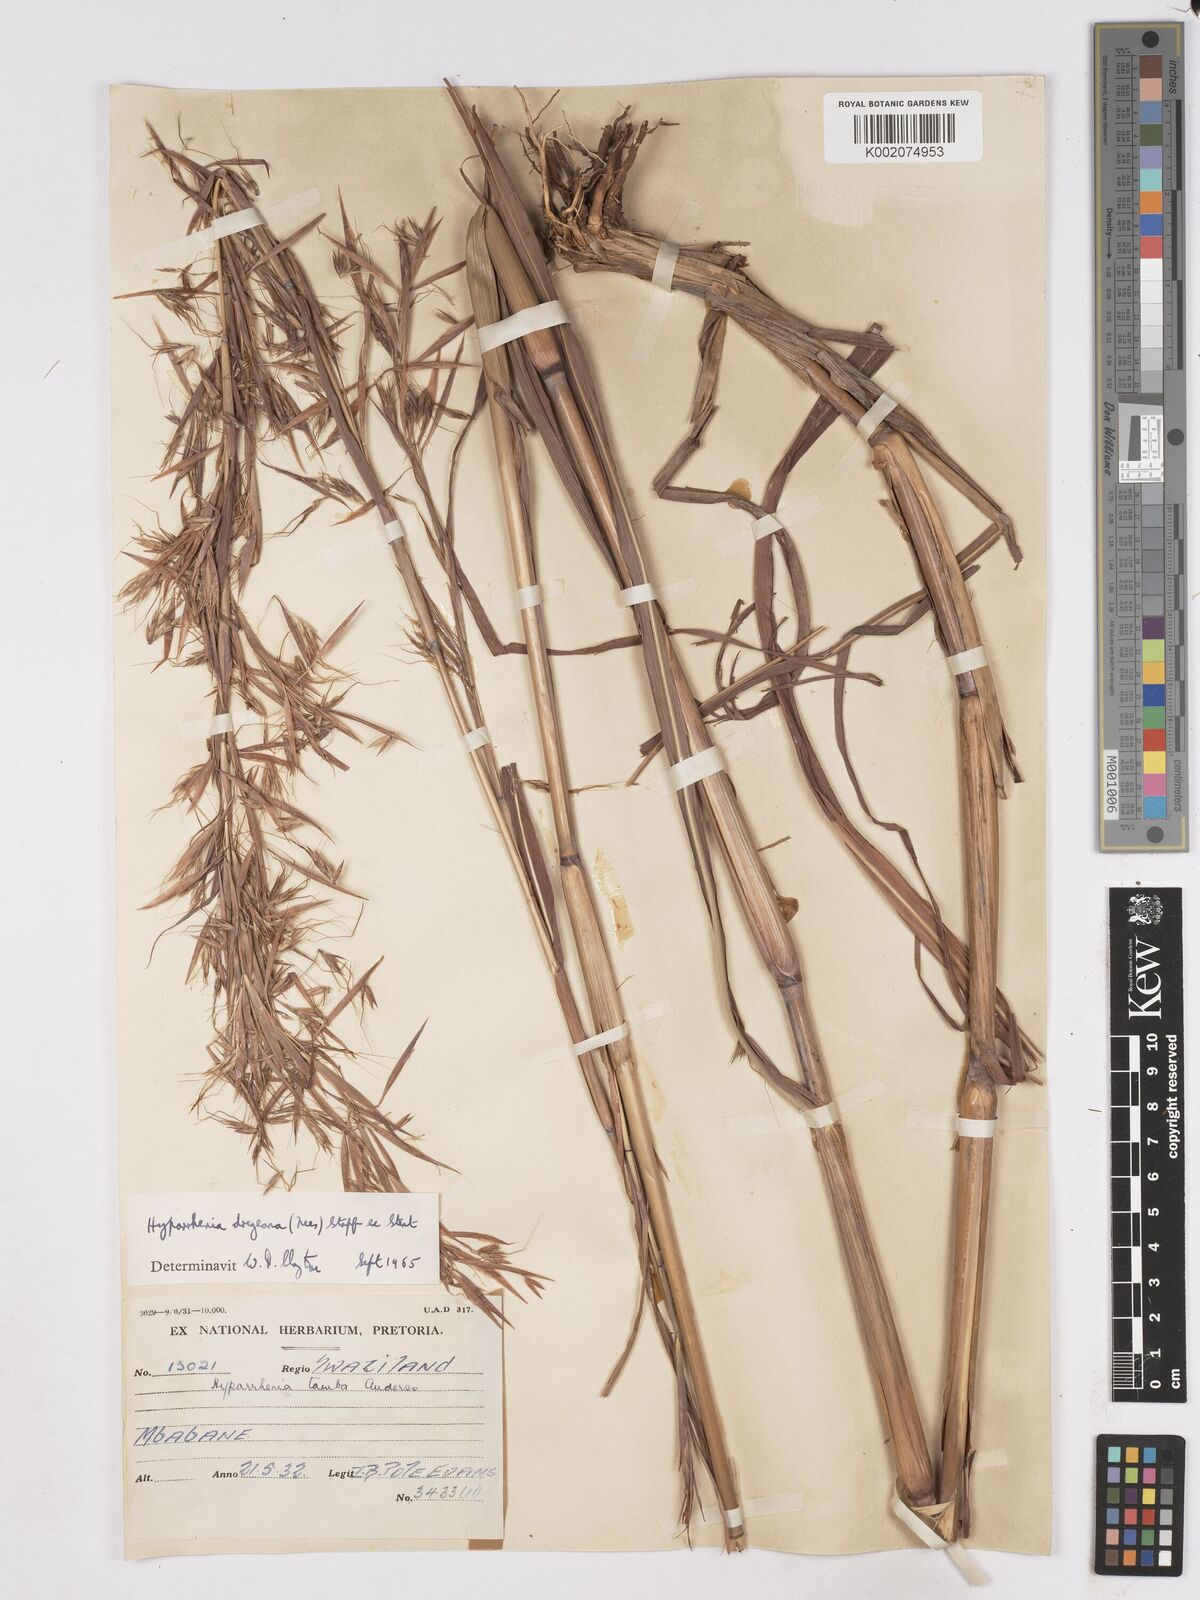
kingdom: Plantae
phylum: Tracheophyta
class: Liliopsida
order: Poales
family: Poaceae
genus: Hyparrhenia
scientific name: Hyparrhenia dregeana
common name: Silky thatching grass
